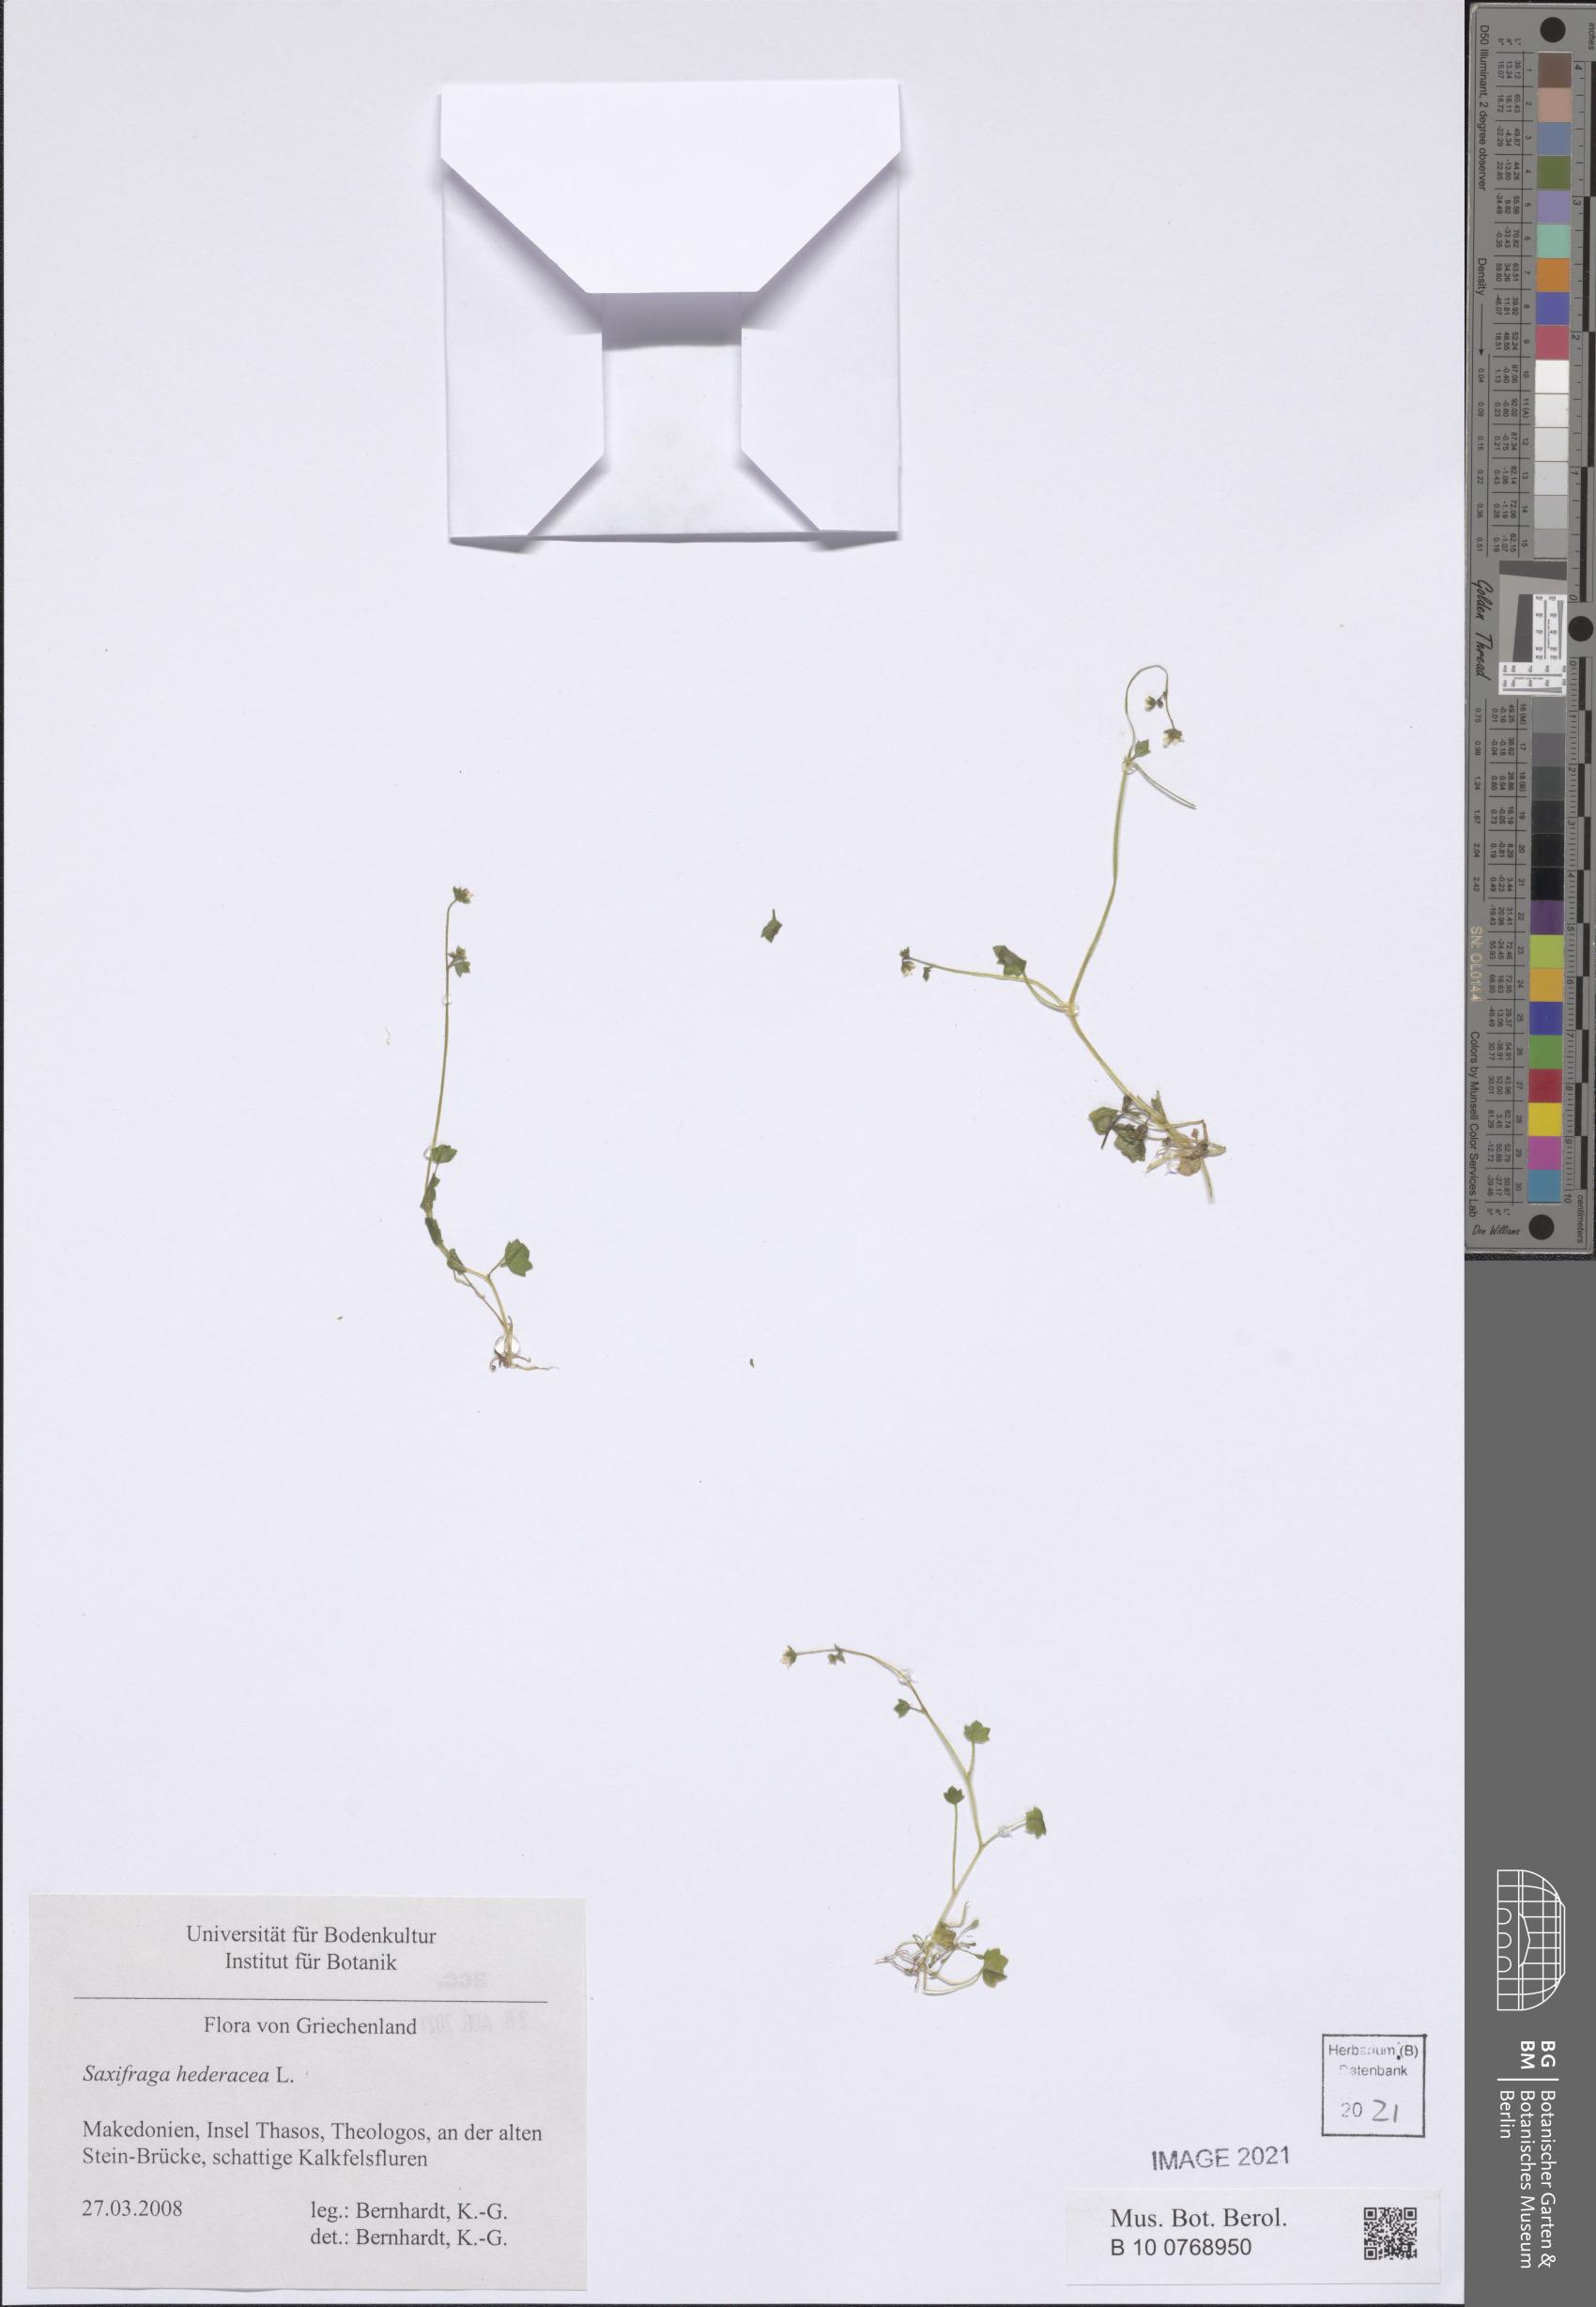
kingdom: Plantae
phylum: Tracheophyta
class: Magnoliopsida
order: Saxifragales
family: Saxifragaceae
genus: Saxifraga
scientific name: Saxifraga hederacea
